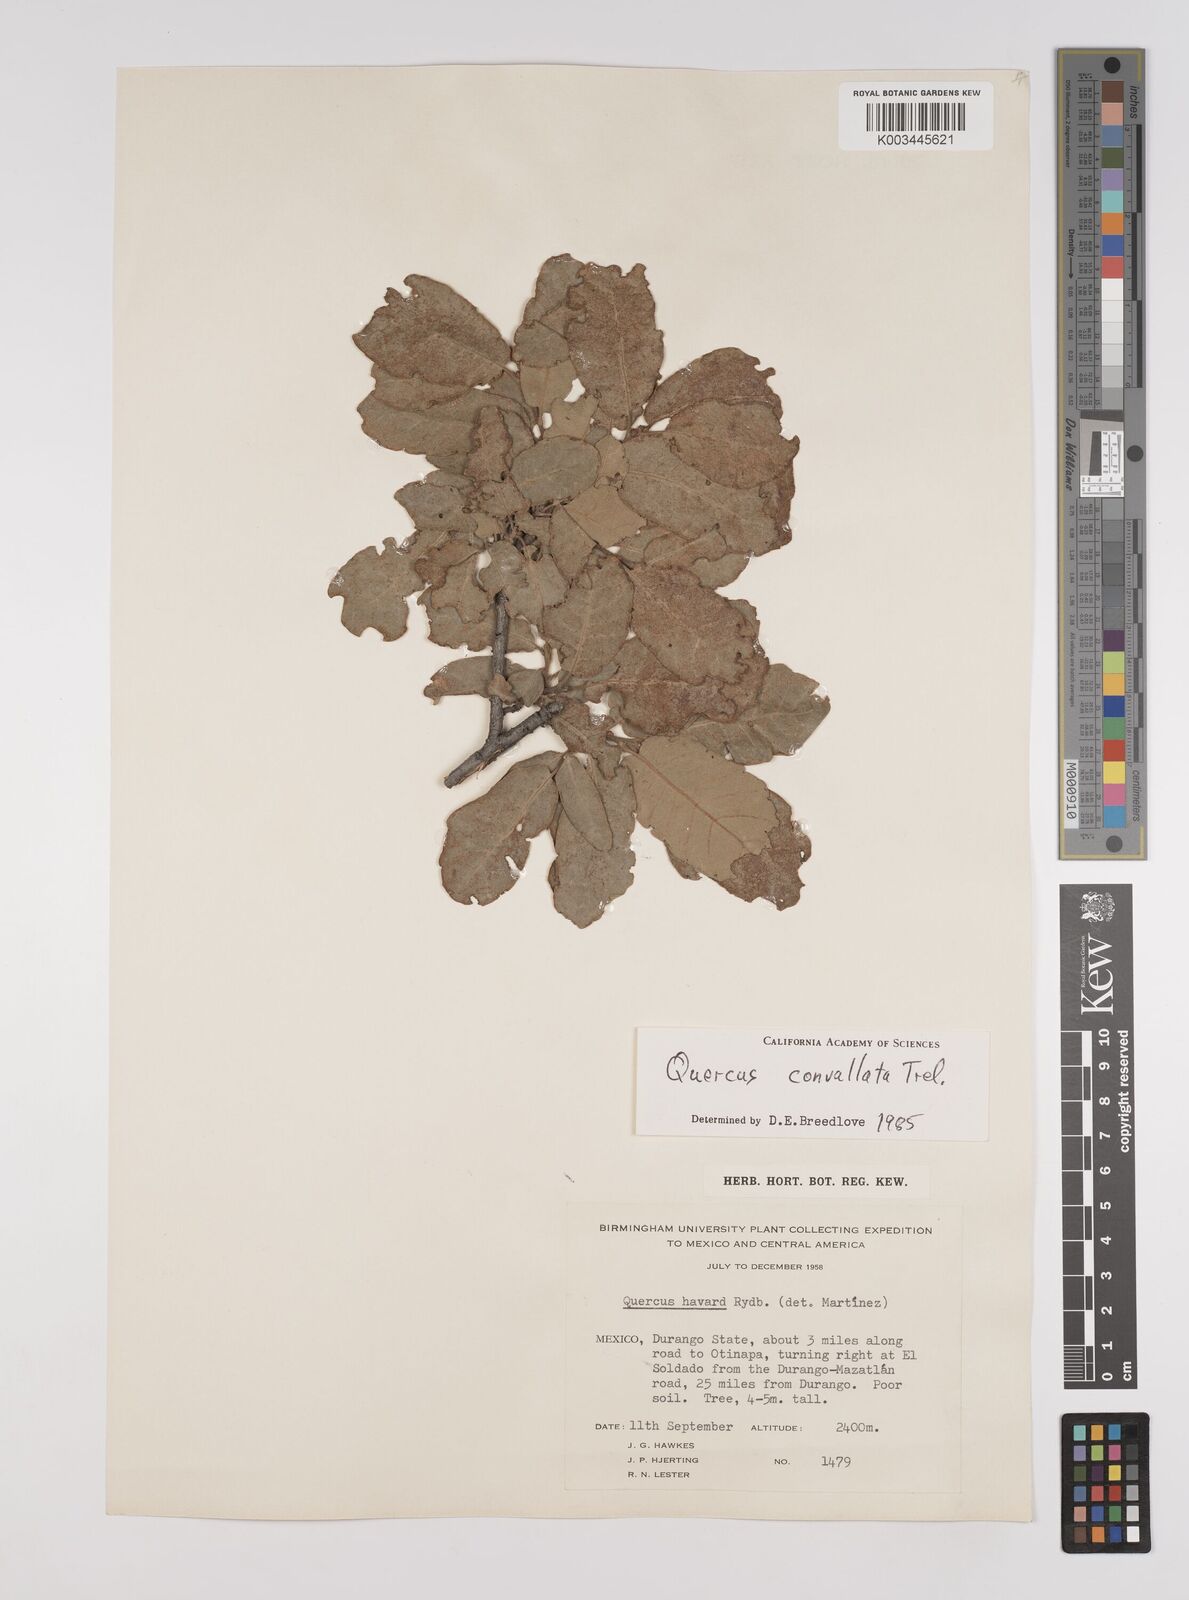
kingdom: Plantae
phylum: Tracheophyta
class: Magnoliopsida
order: Fagales
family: Fagaceae
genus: Quercus
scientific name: Quercus convallata
